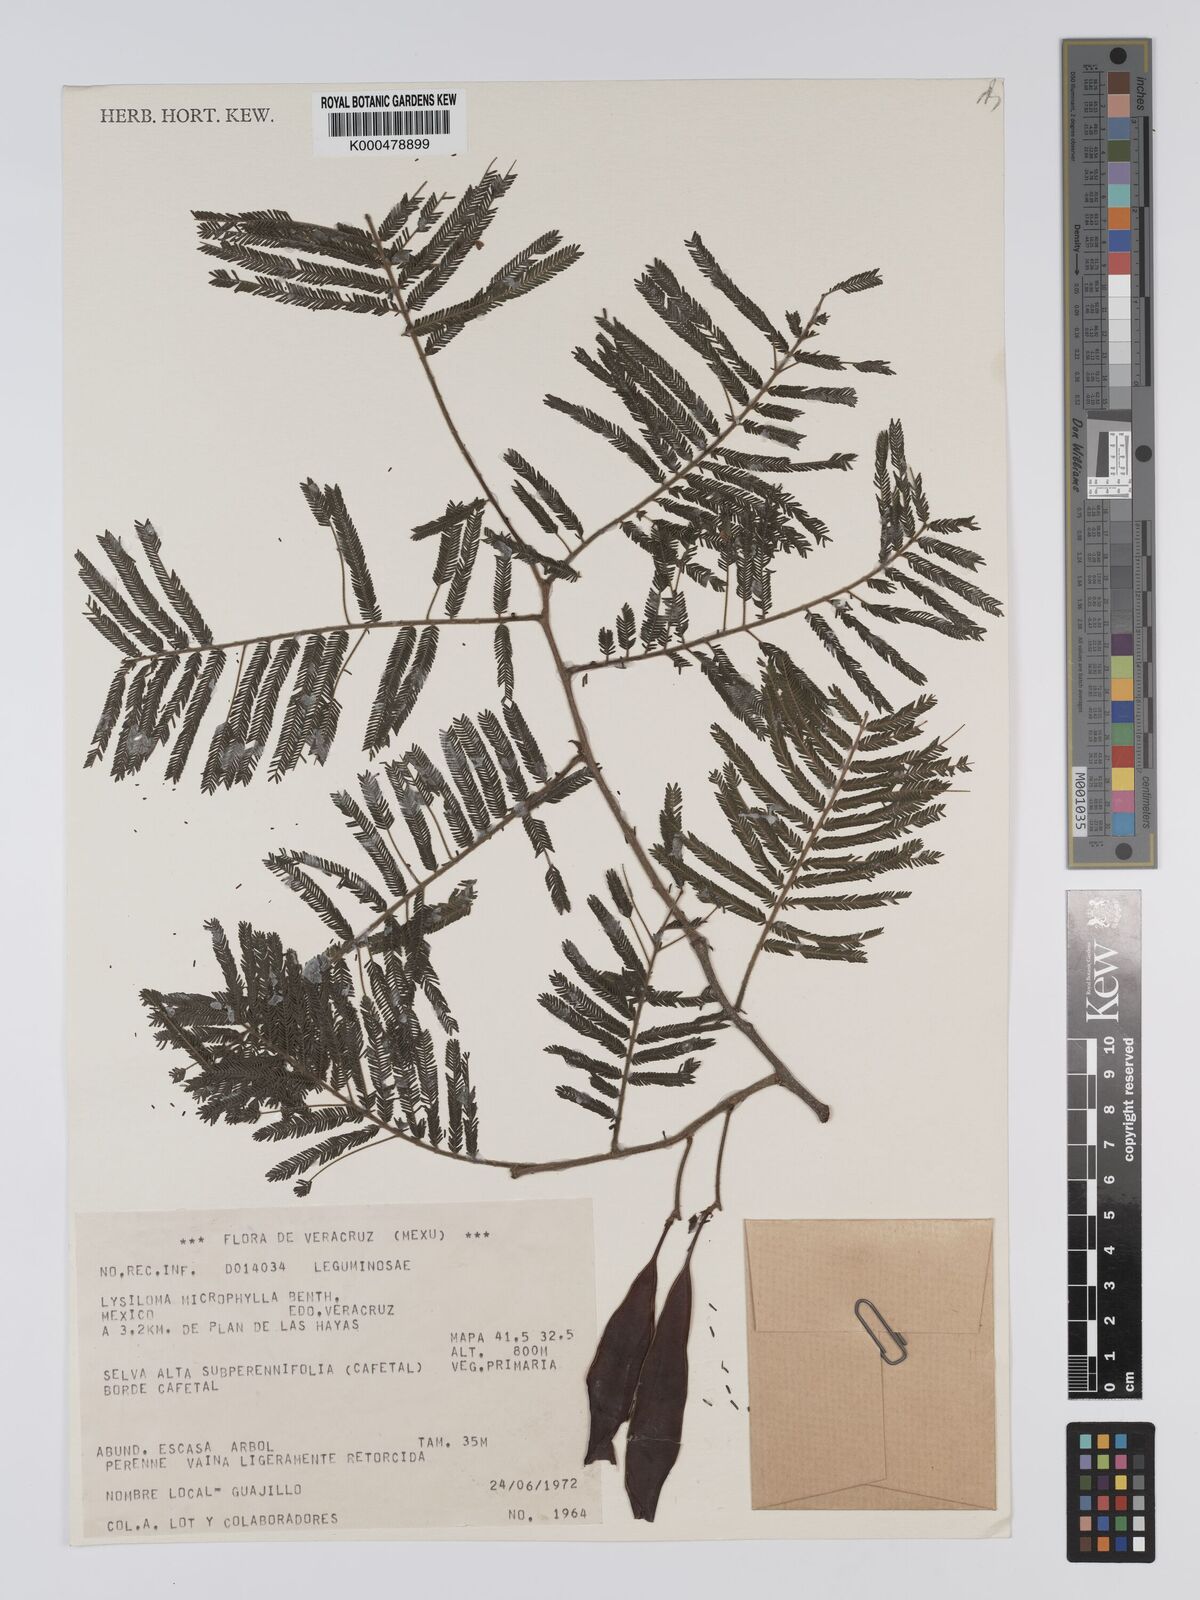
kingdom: Plantae
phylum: Tracheophyta
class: Magnoliopsida
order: Fabales
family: Fabaceae
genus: Lysiloma
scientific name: Lysiloma divaricatum
